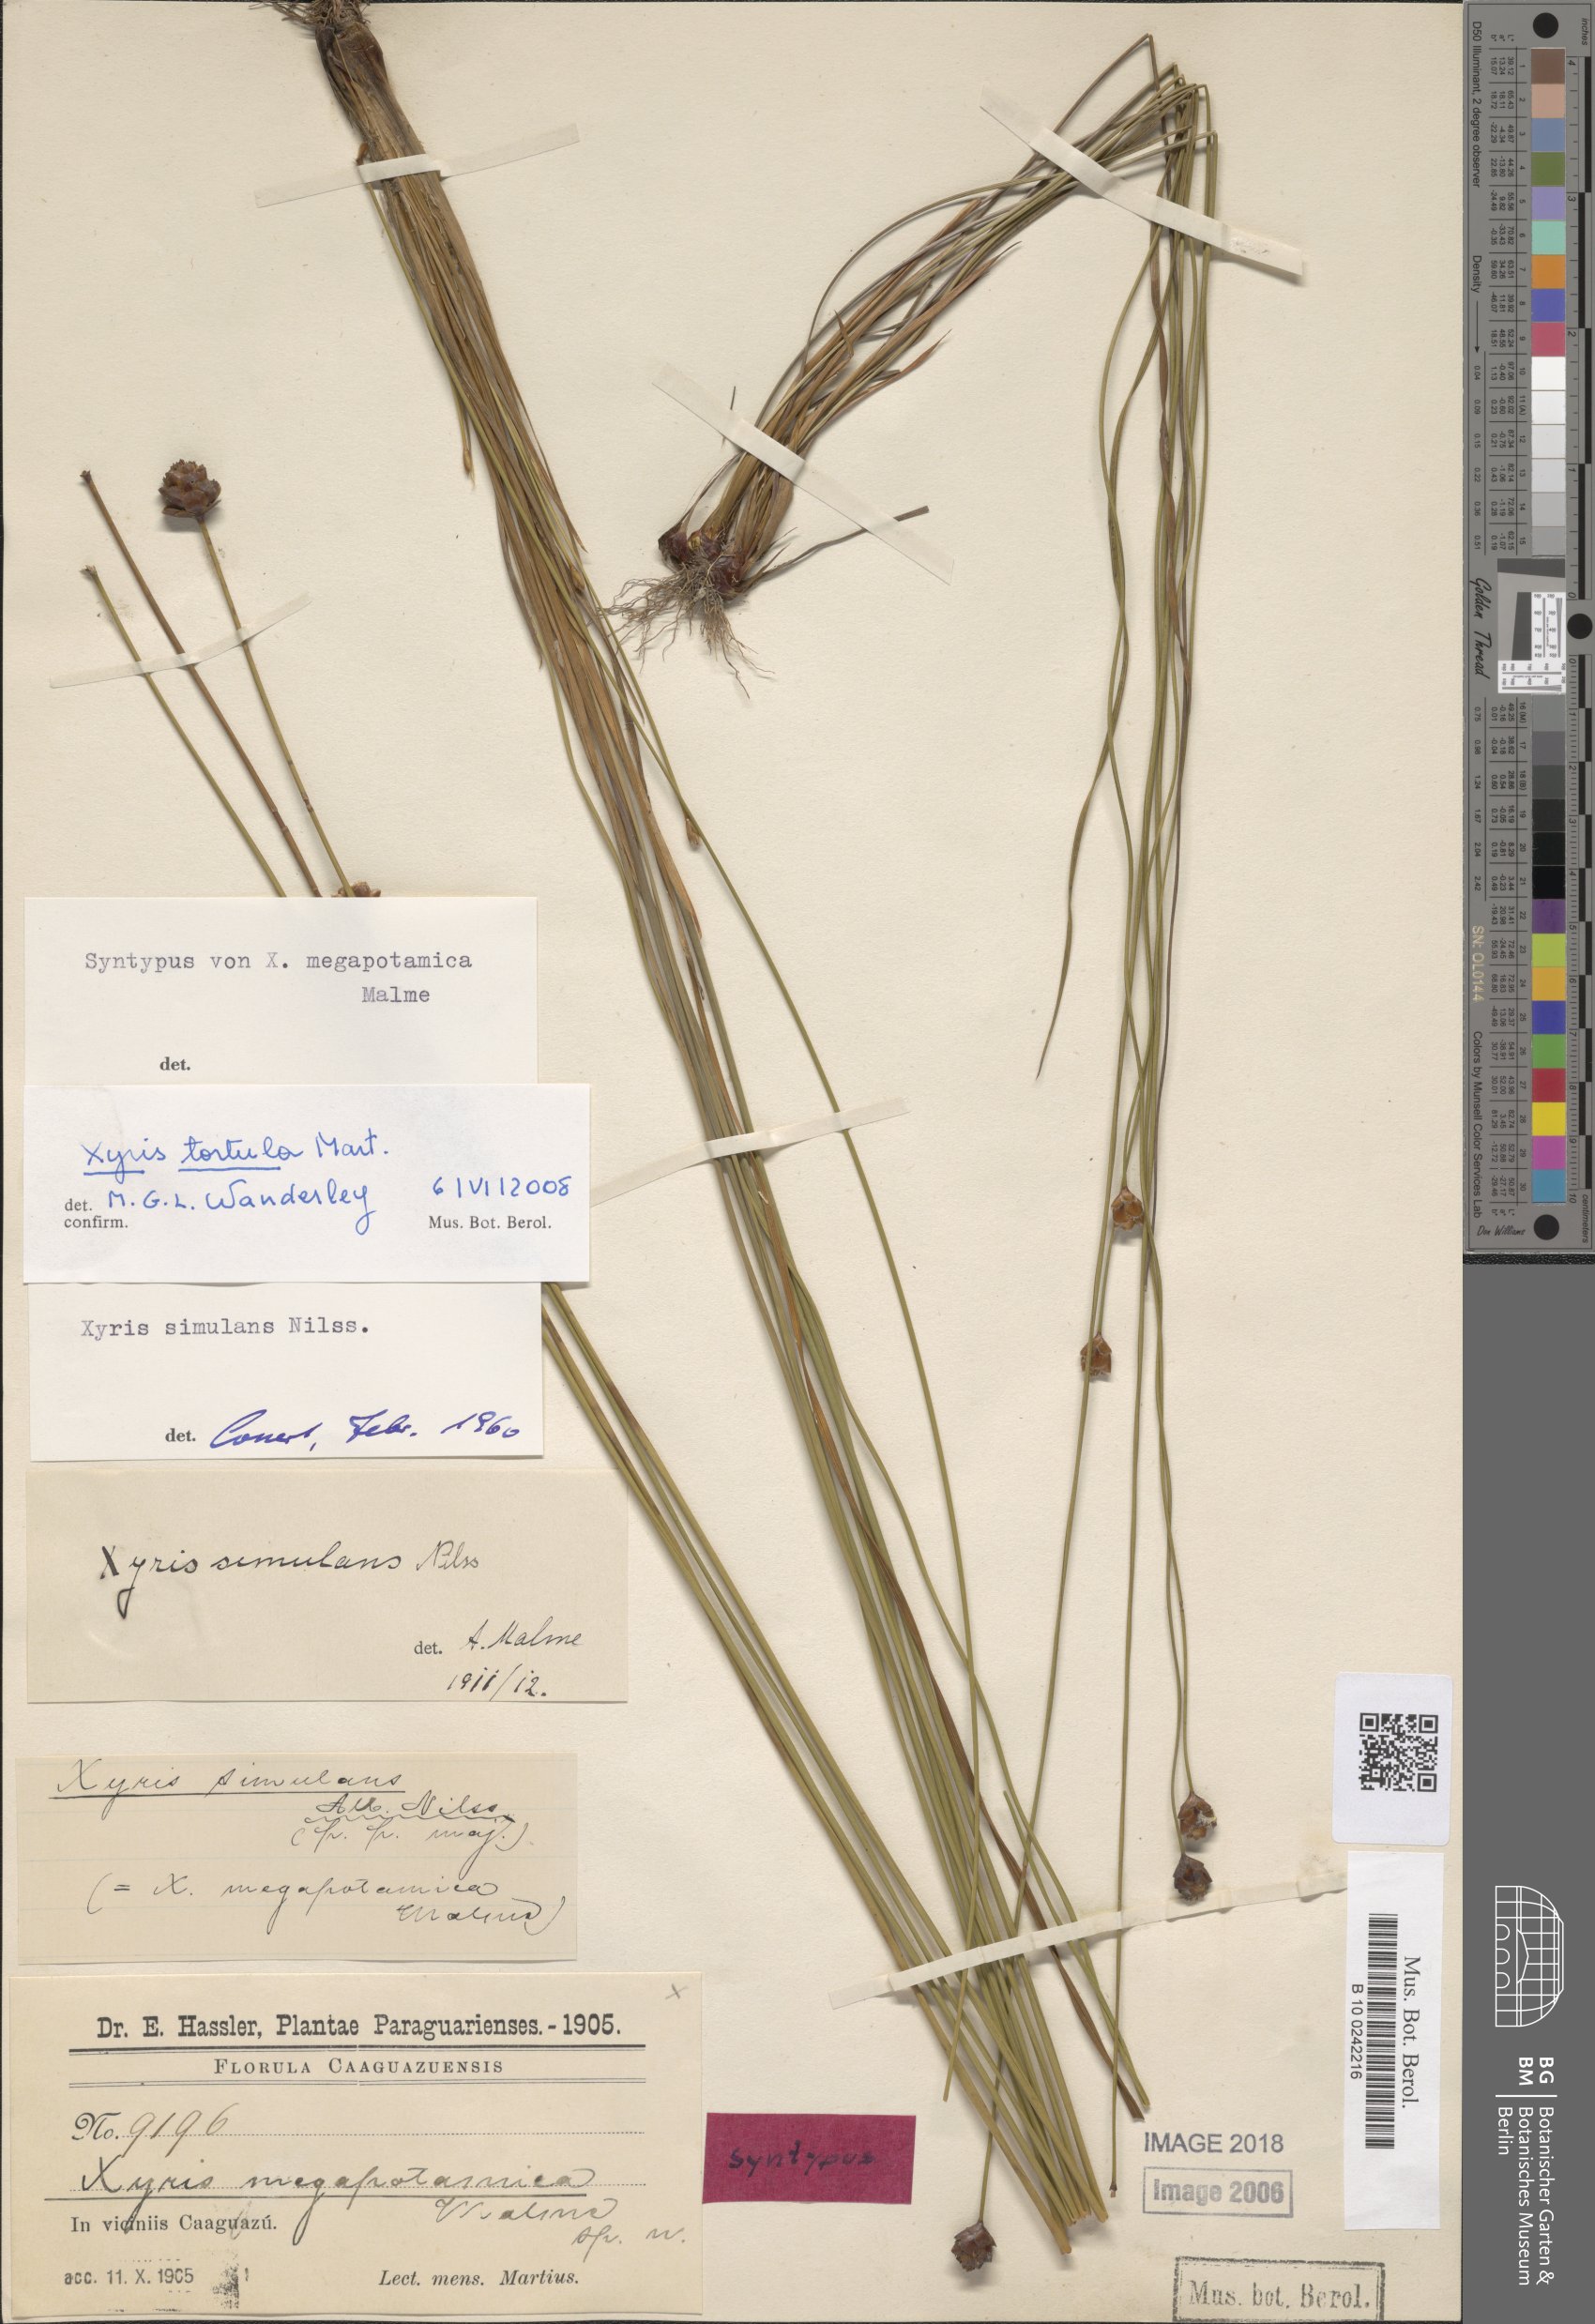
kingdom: Plantae
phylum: Tracheophyta
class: Liliopsida
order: Poales
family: Xyridaceae
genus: Xyris
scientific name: Xyris tortula
